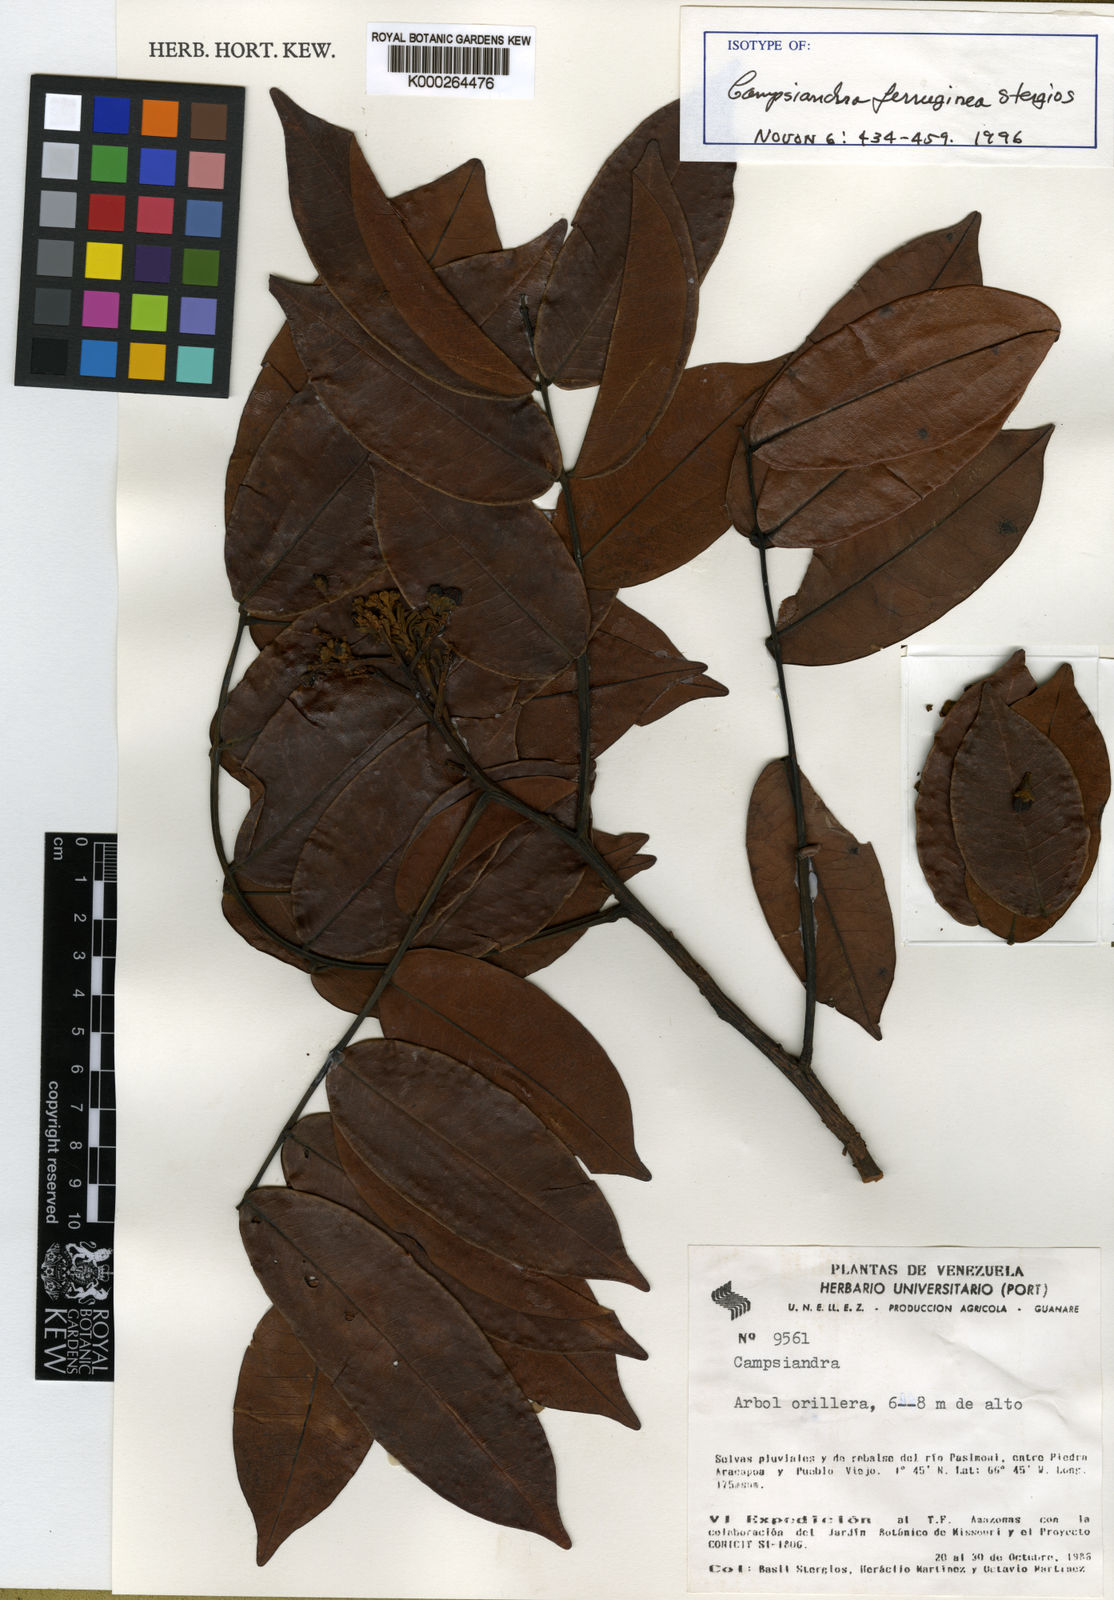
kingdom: Plantae
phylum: Tracheophyta
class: Magnoliopsida
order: Fabales
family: Fabaceae
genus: Campsiandra
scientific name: Campsiandra ferruginea
